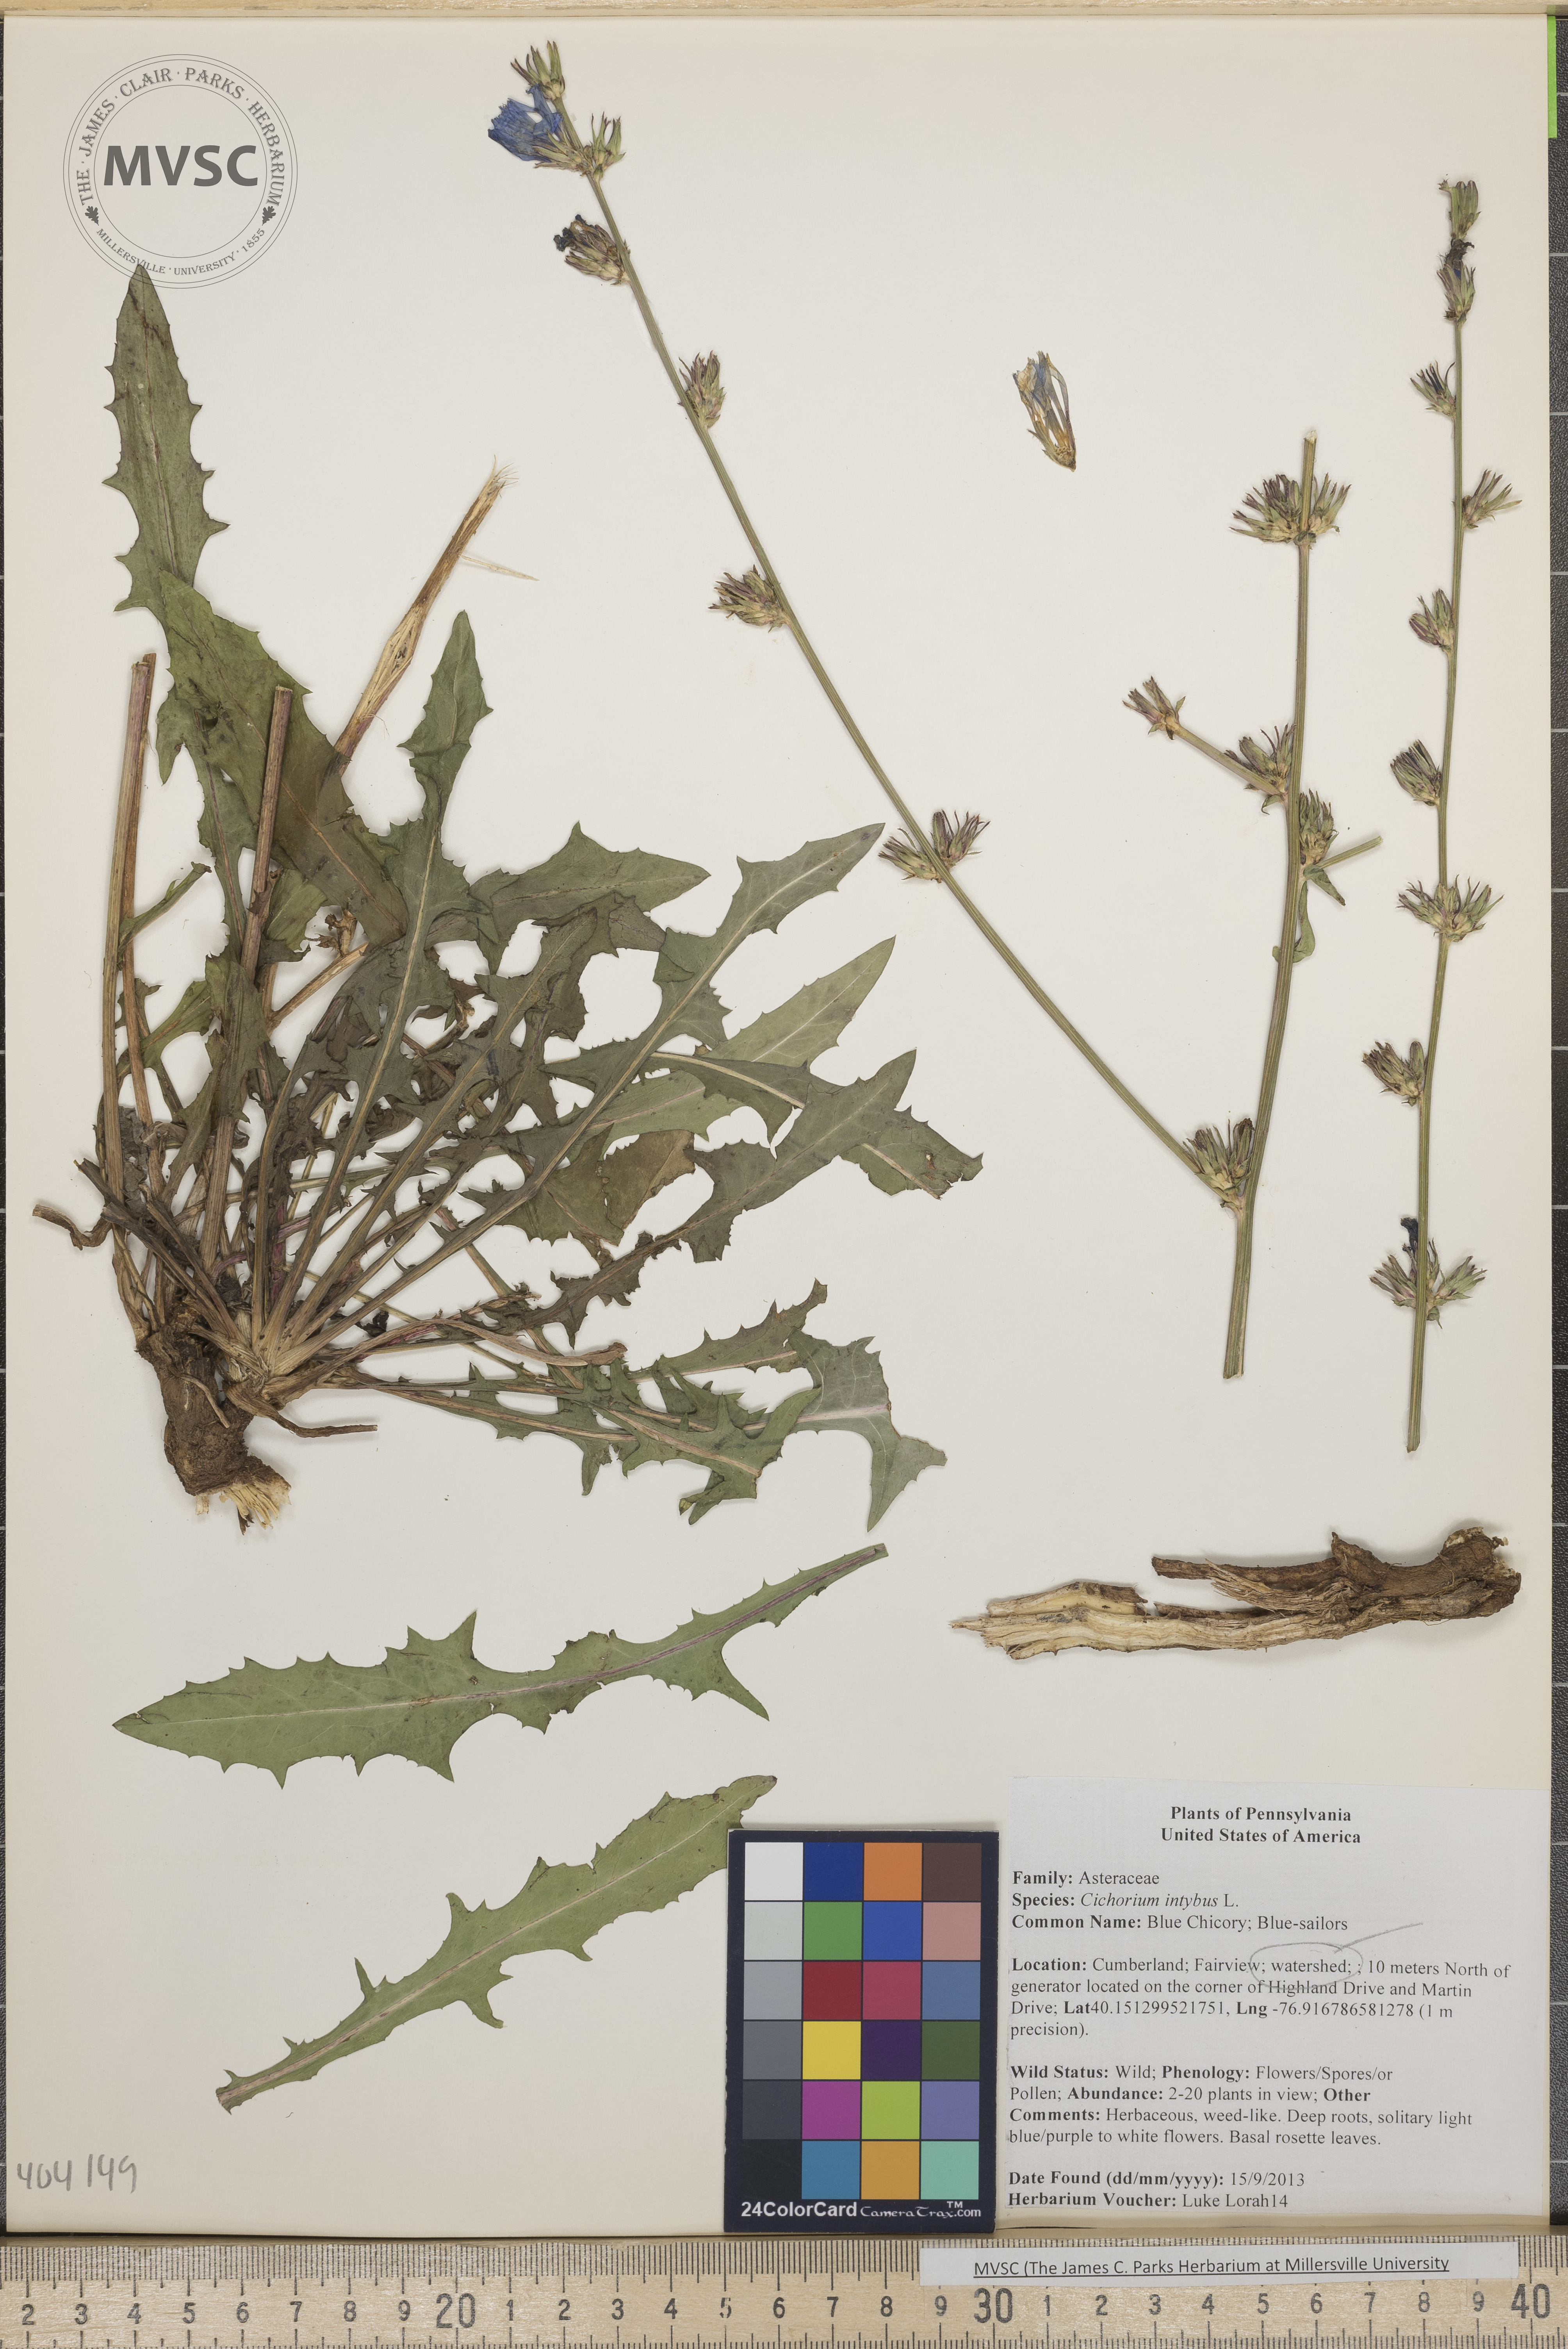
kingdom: Plantae
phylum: Tracheophyta
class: Magnoliopsida
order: Asterales
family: Asteraceae
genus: Cichorium
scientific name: Cichorium intybus
